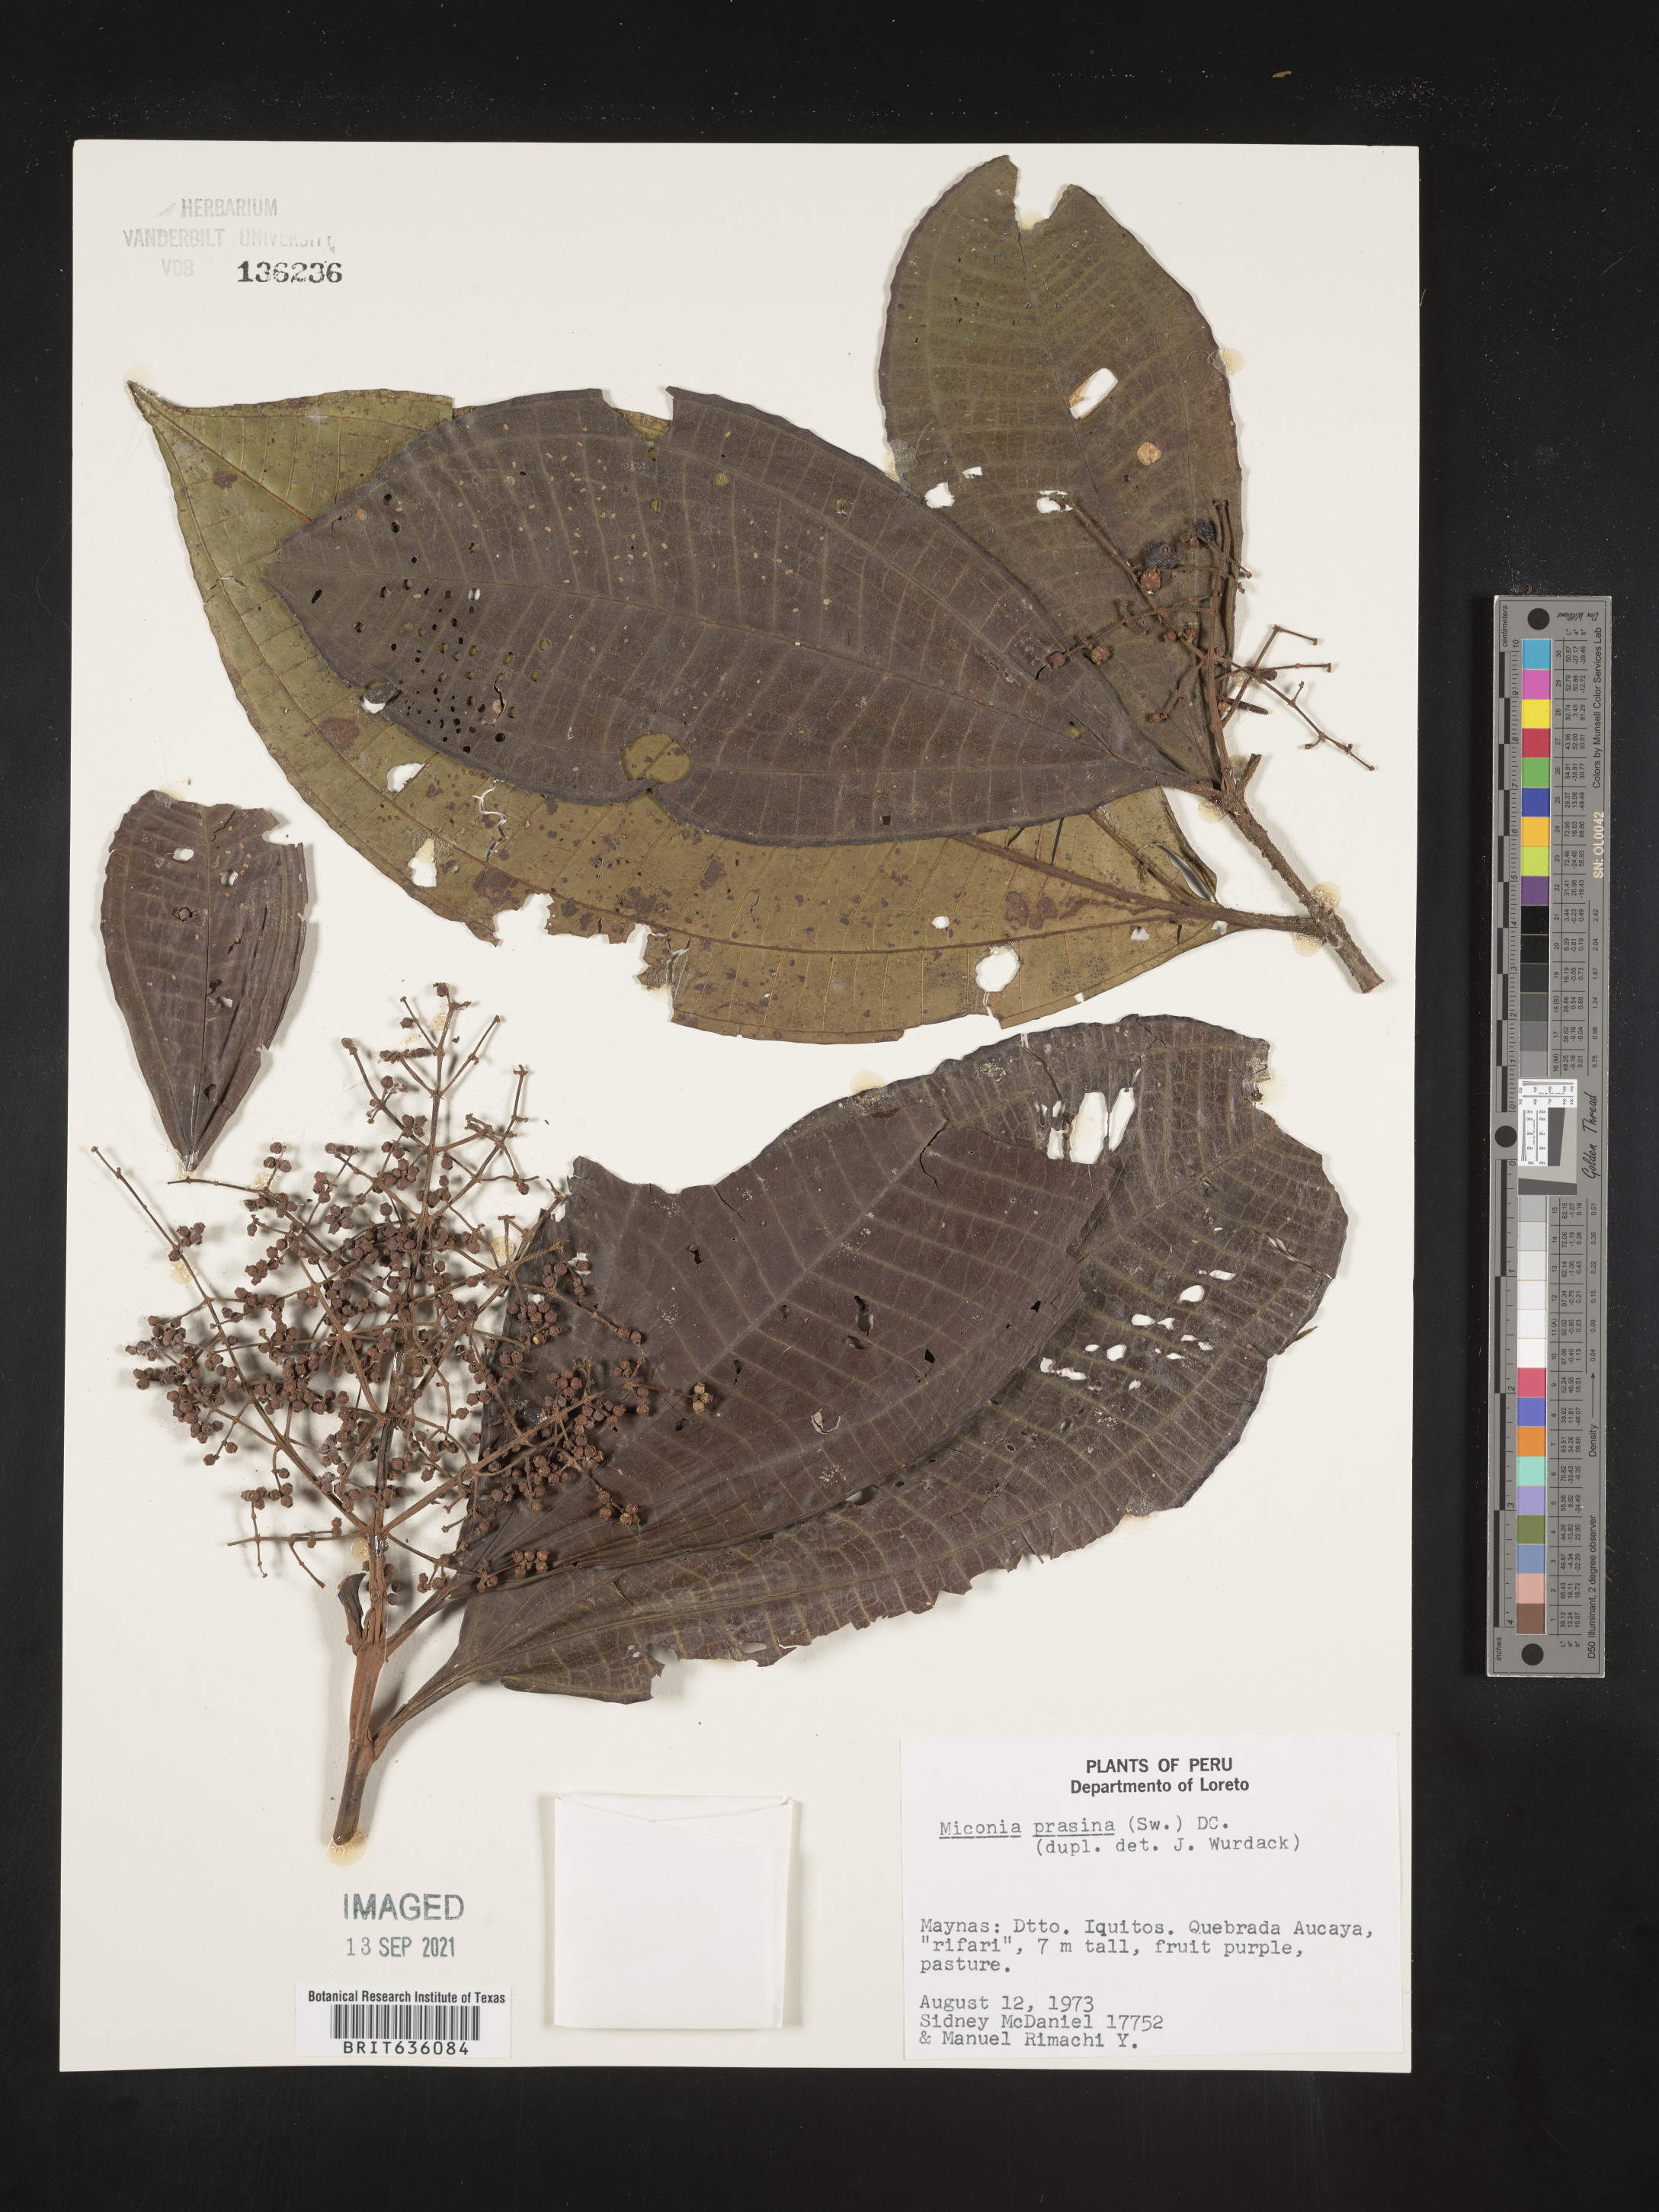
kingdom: Plantae
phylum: Tracheophyta
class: Magnoliopsida
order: Myrtales
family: Melastomataceae
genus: Miconia
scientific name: Miconia
